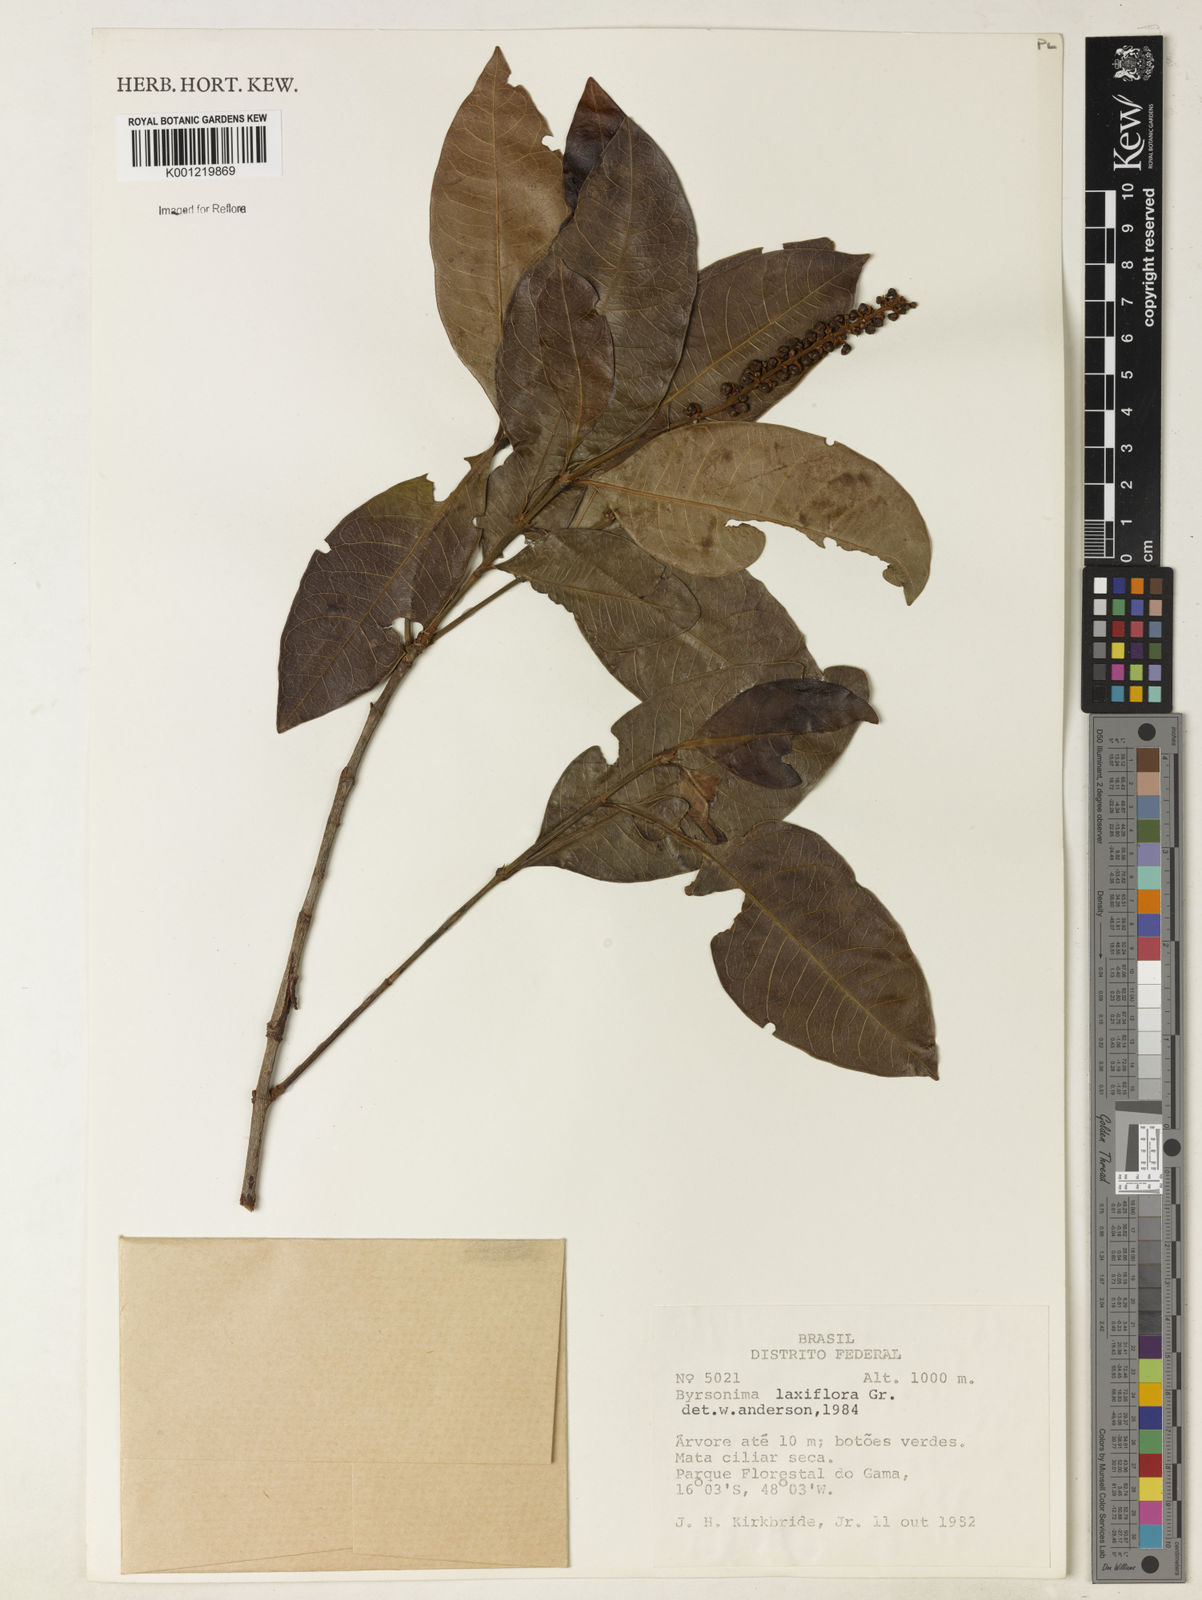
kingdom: Plantae
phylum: Tracheophyta
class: Magnoliopsida
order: Malpighiales
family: Malpighiaceae
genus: Byrsonima
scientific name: Byrsonima laxiflora
